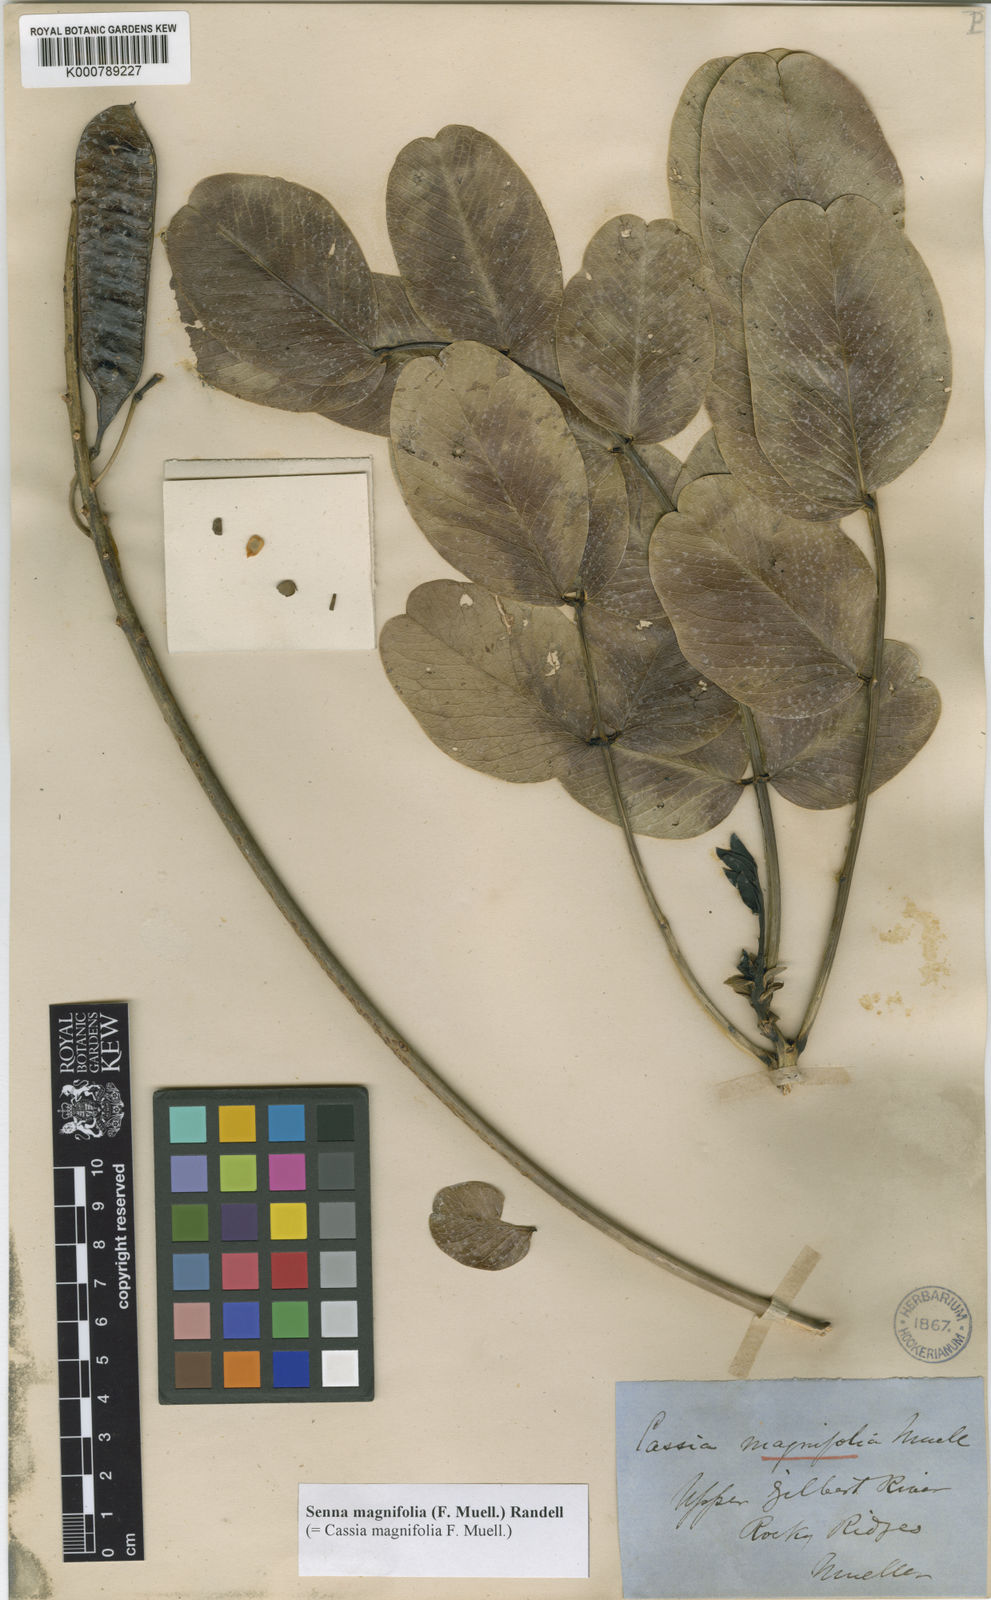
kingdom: Plantae
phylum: Tracheophyta
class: Magnoliopsida
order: Fabales
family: Fabaceae
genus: Senna
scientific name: Senna magnifolia
